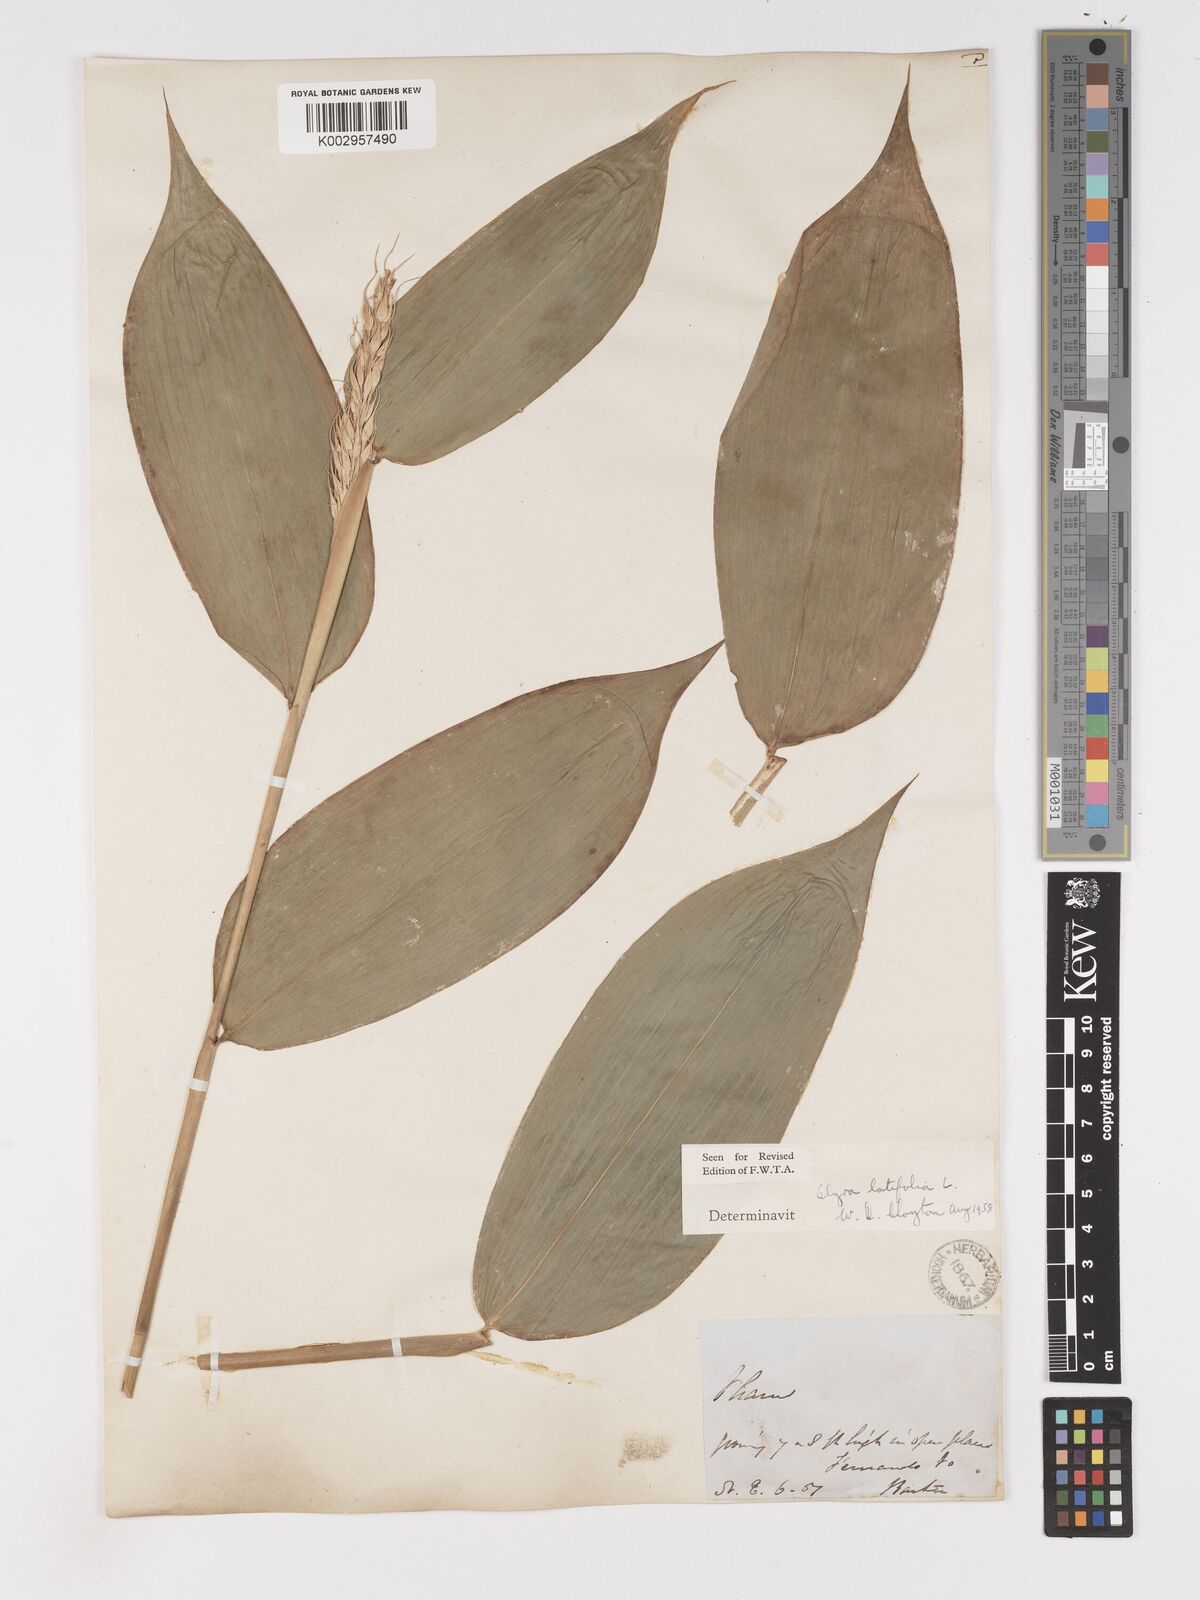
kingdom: Plantae
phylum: Tracheophyta
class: Liliopsida
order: Poales
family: Poaceae
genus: Olyra
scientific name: Olyra latifolia
